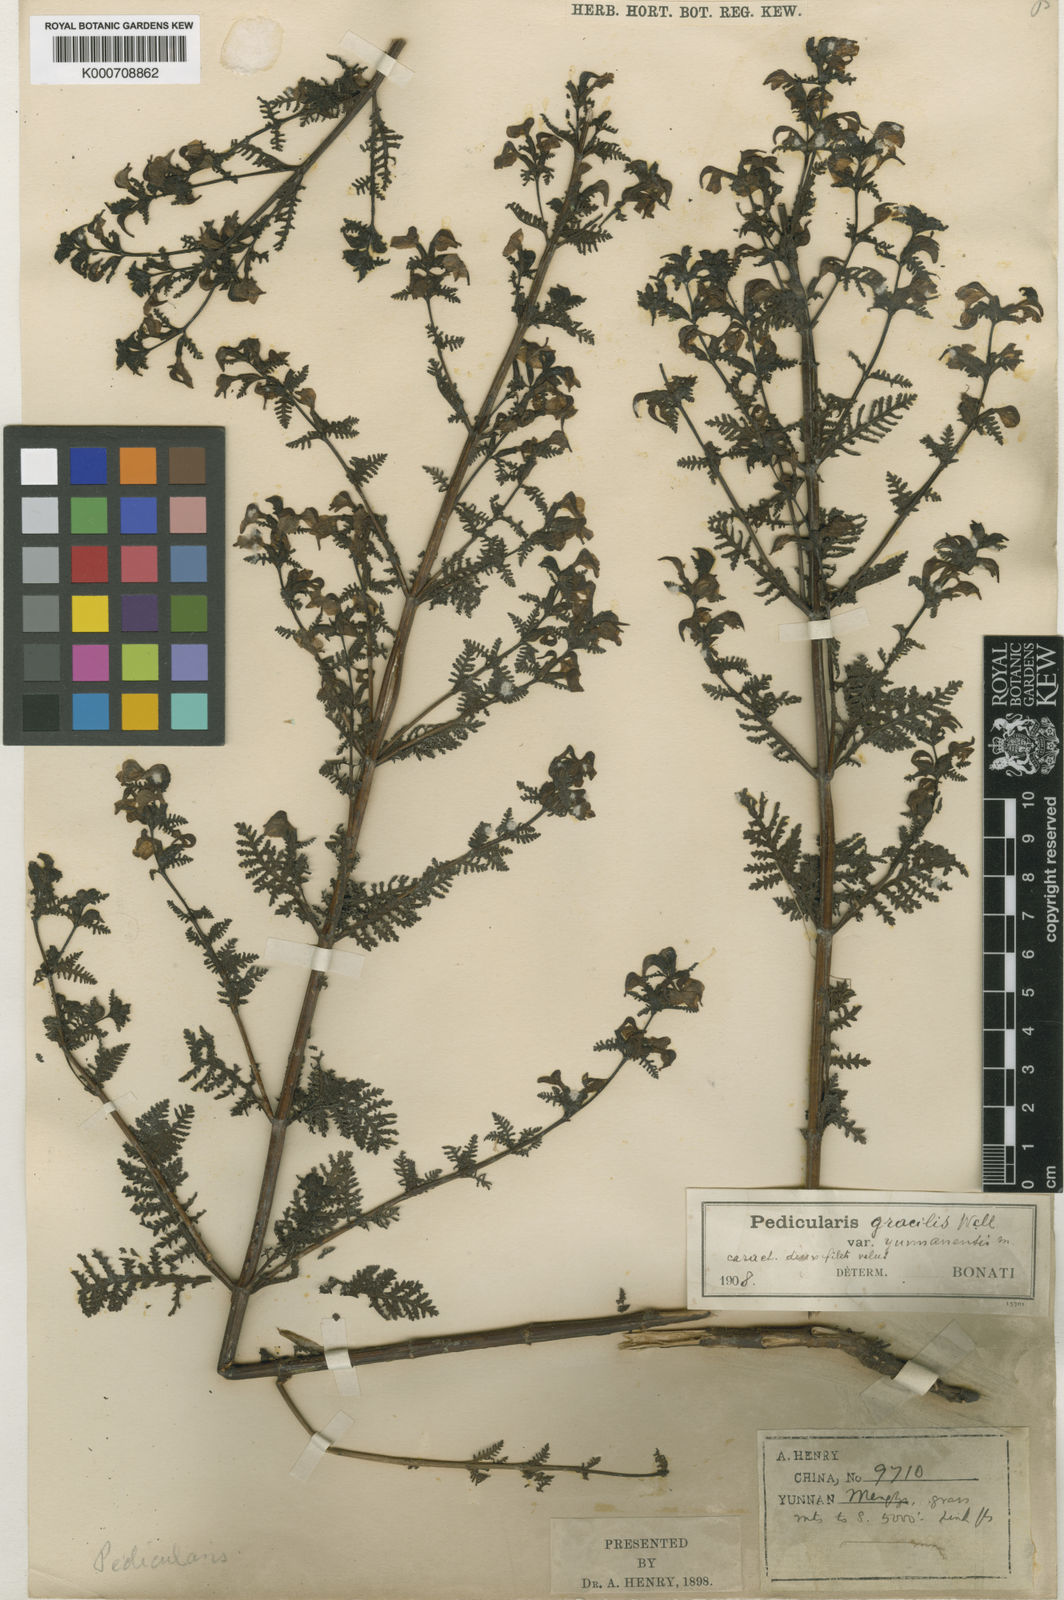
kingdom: Plantae
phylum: Tracheophyta
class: Magnoliopsida
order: Lamiales
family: Orobanchaceae
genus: Pedicularis
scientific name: Pedicularis gracilis
